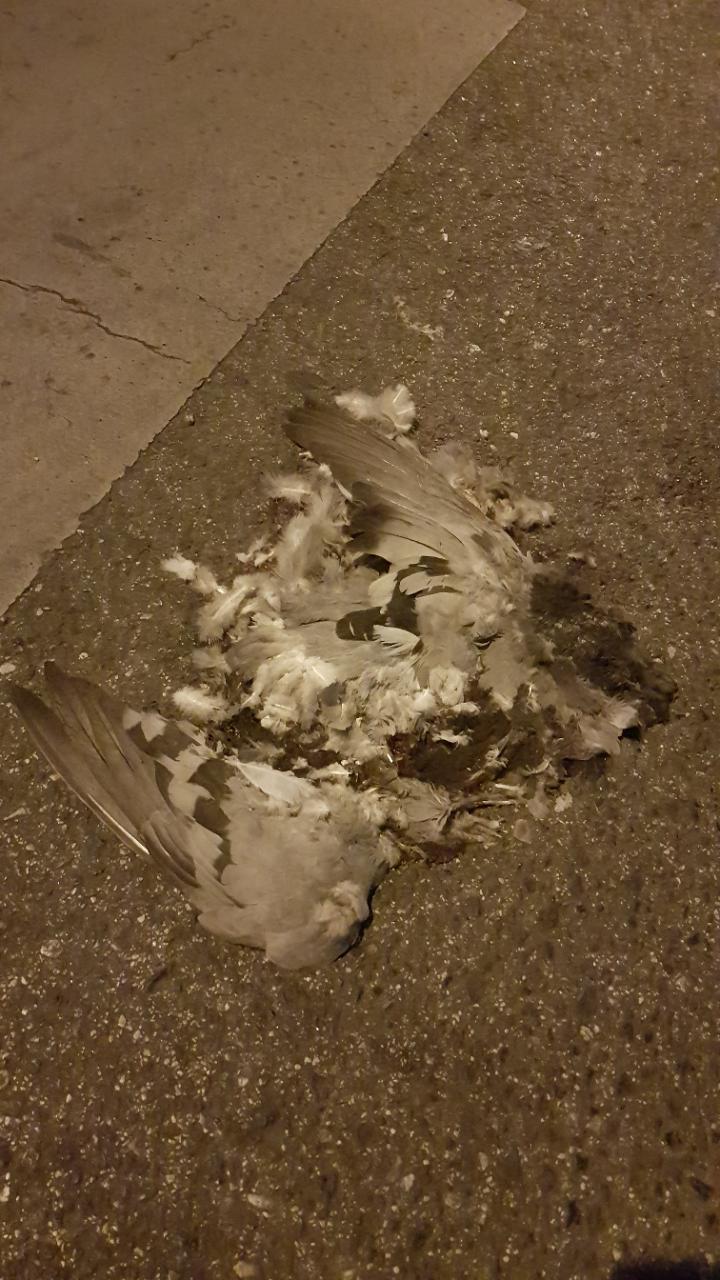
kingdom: Animalia
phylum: Chordata
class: Aves
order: Columbiformes
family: Columbidae
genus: Columba
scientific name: Columba livia
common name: Rock pigeon
